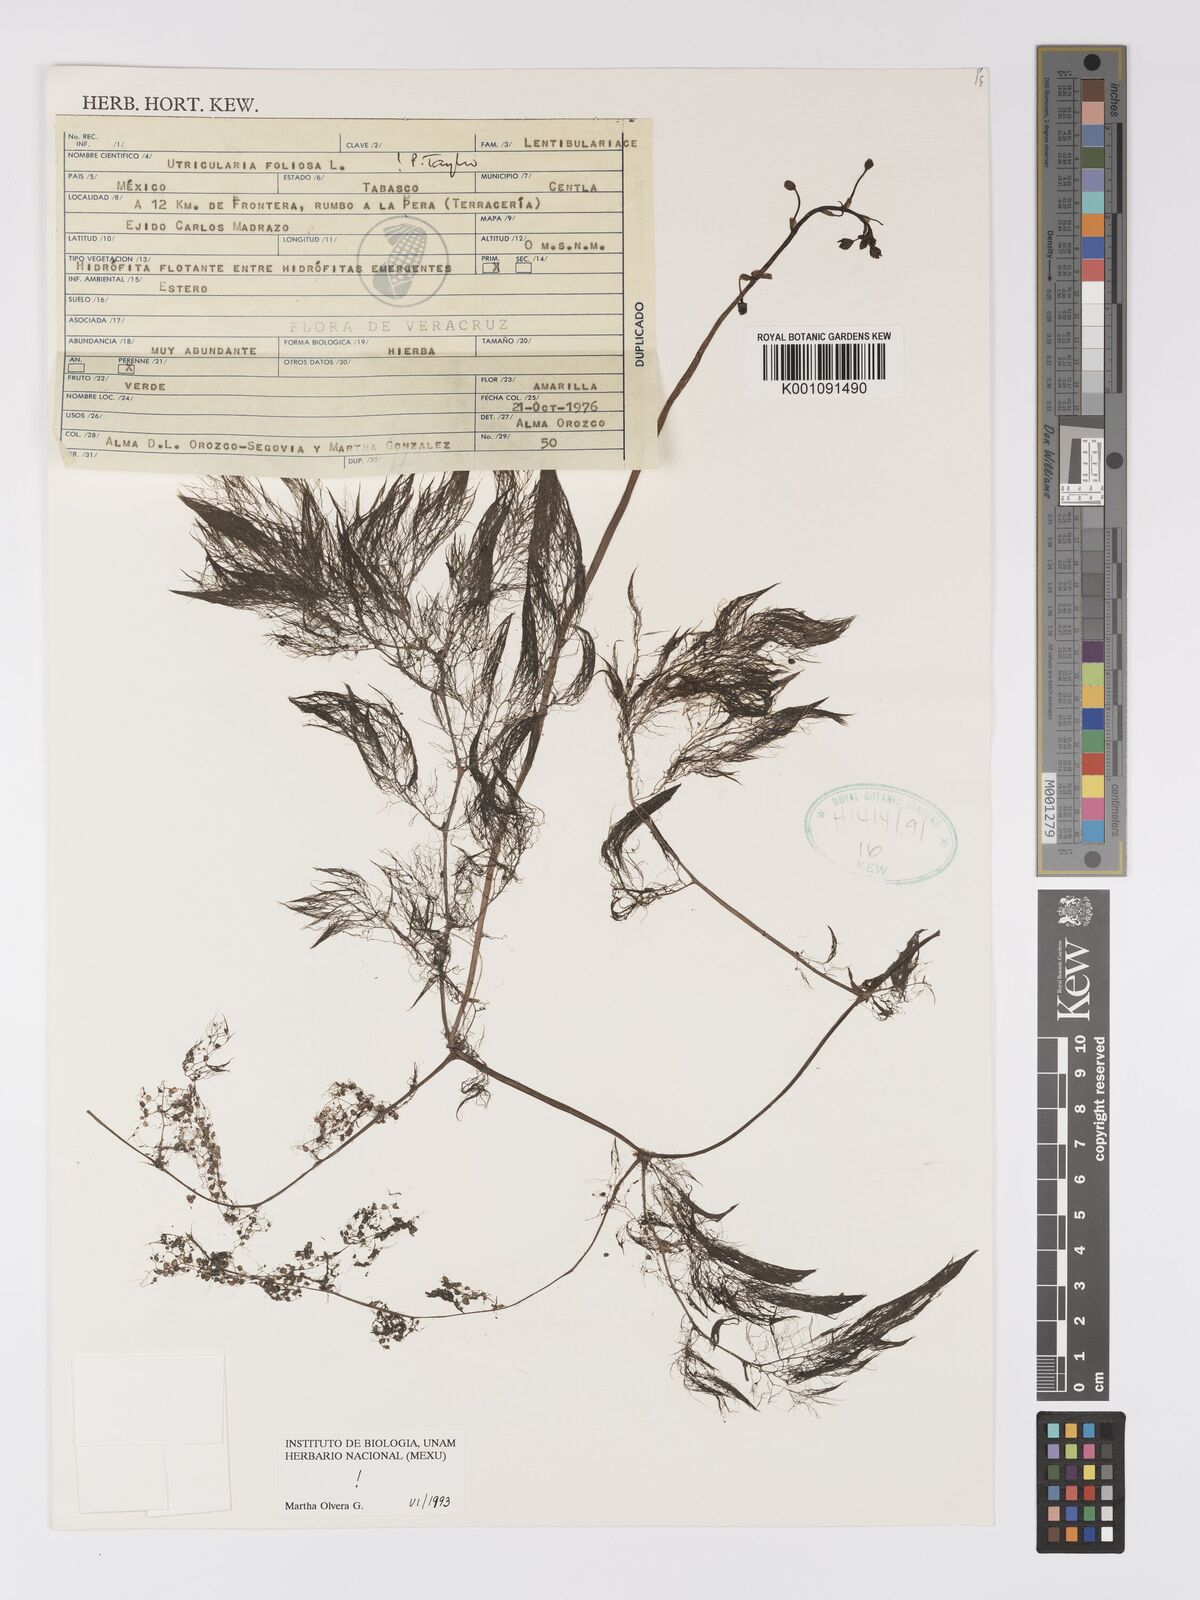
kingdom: Plantae
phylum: Tracheophyta
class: Magnoliopsida
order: Lamiales
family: Lentibulariaceae
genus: Utricularia
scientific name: Utricularia foliosa
